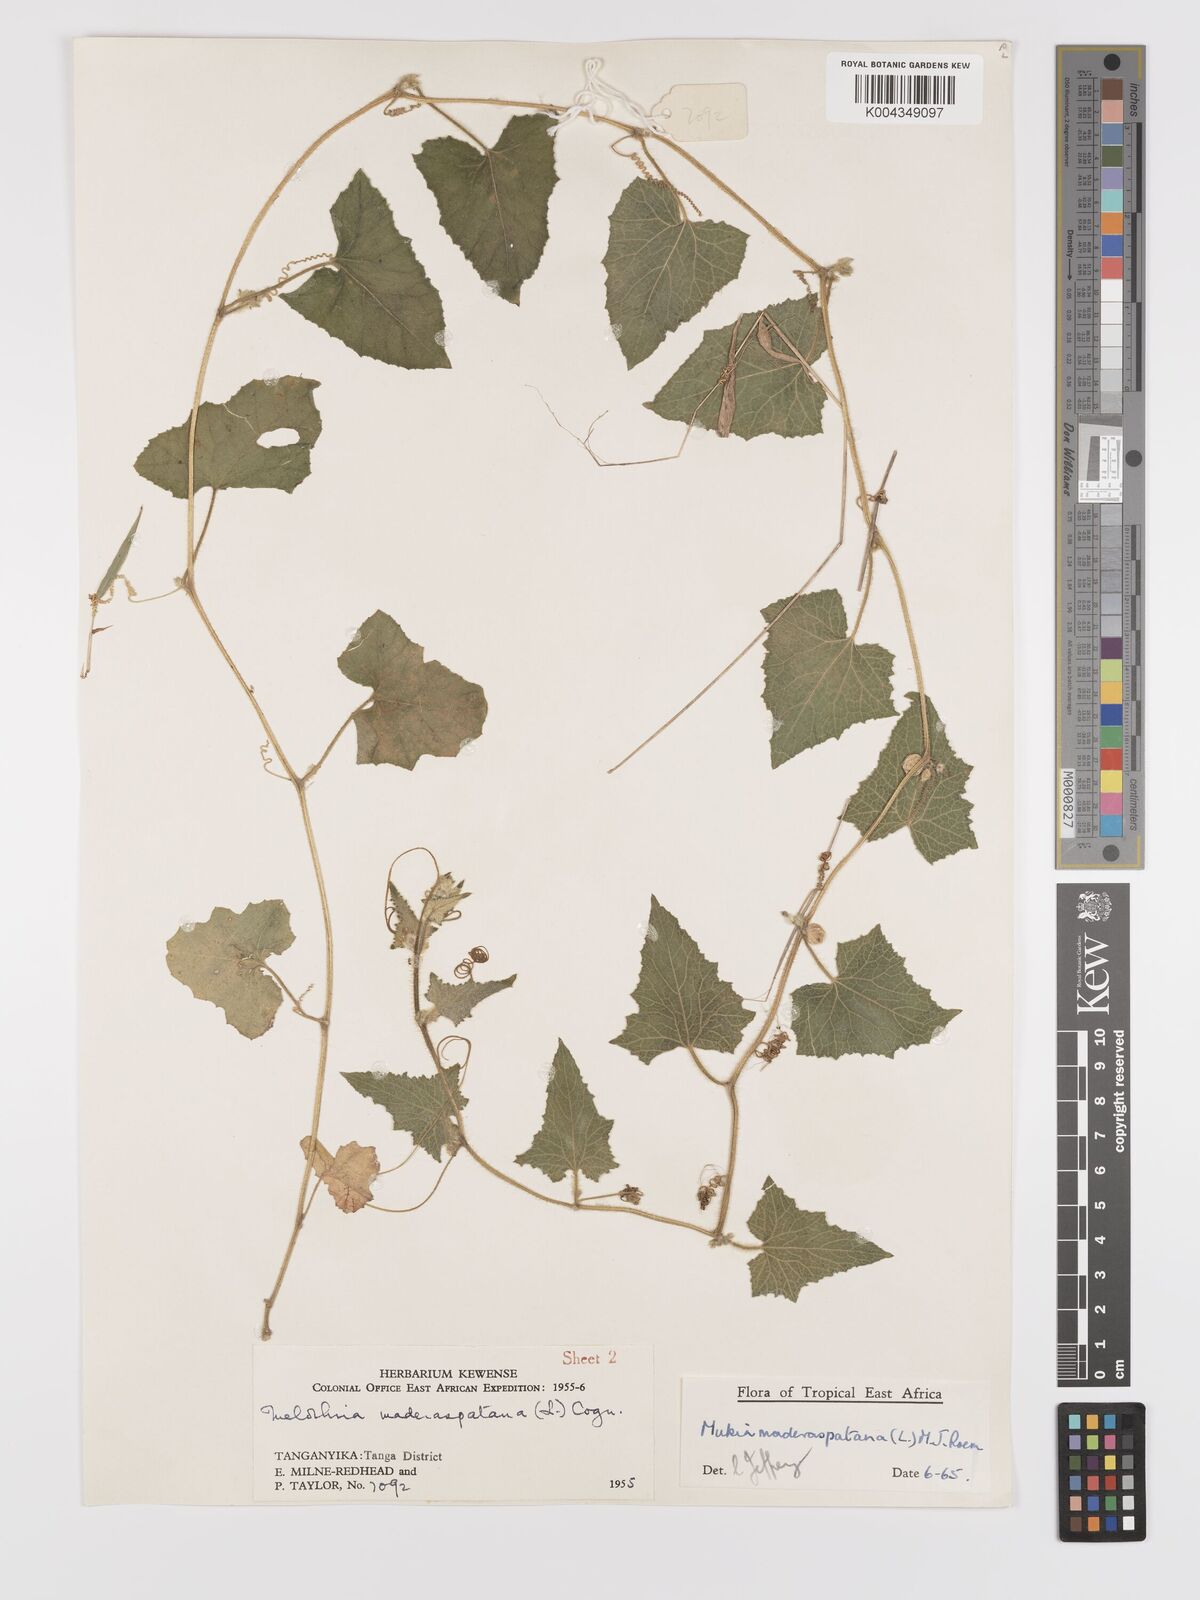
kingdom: Plantae
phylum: Tracheophyta
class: Magnoliopsida
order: Cucurbitales
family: Cucurbitaceae
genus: Cucumis
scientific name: Cucumis maderaspatanus
